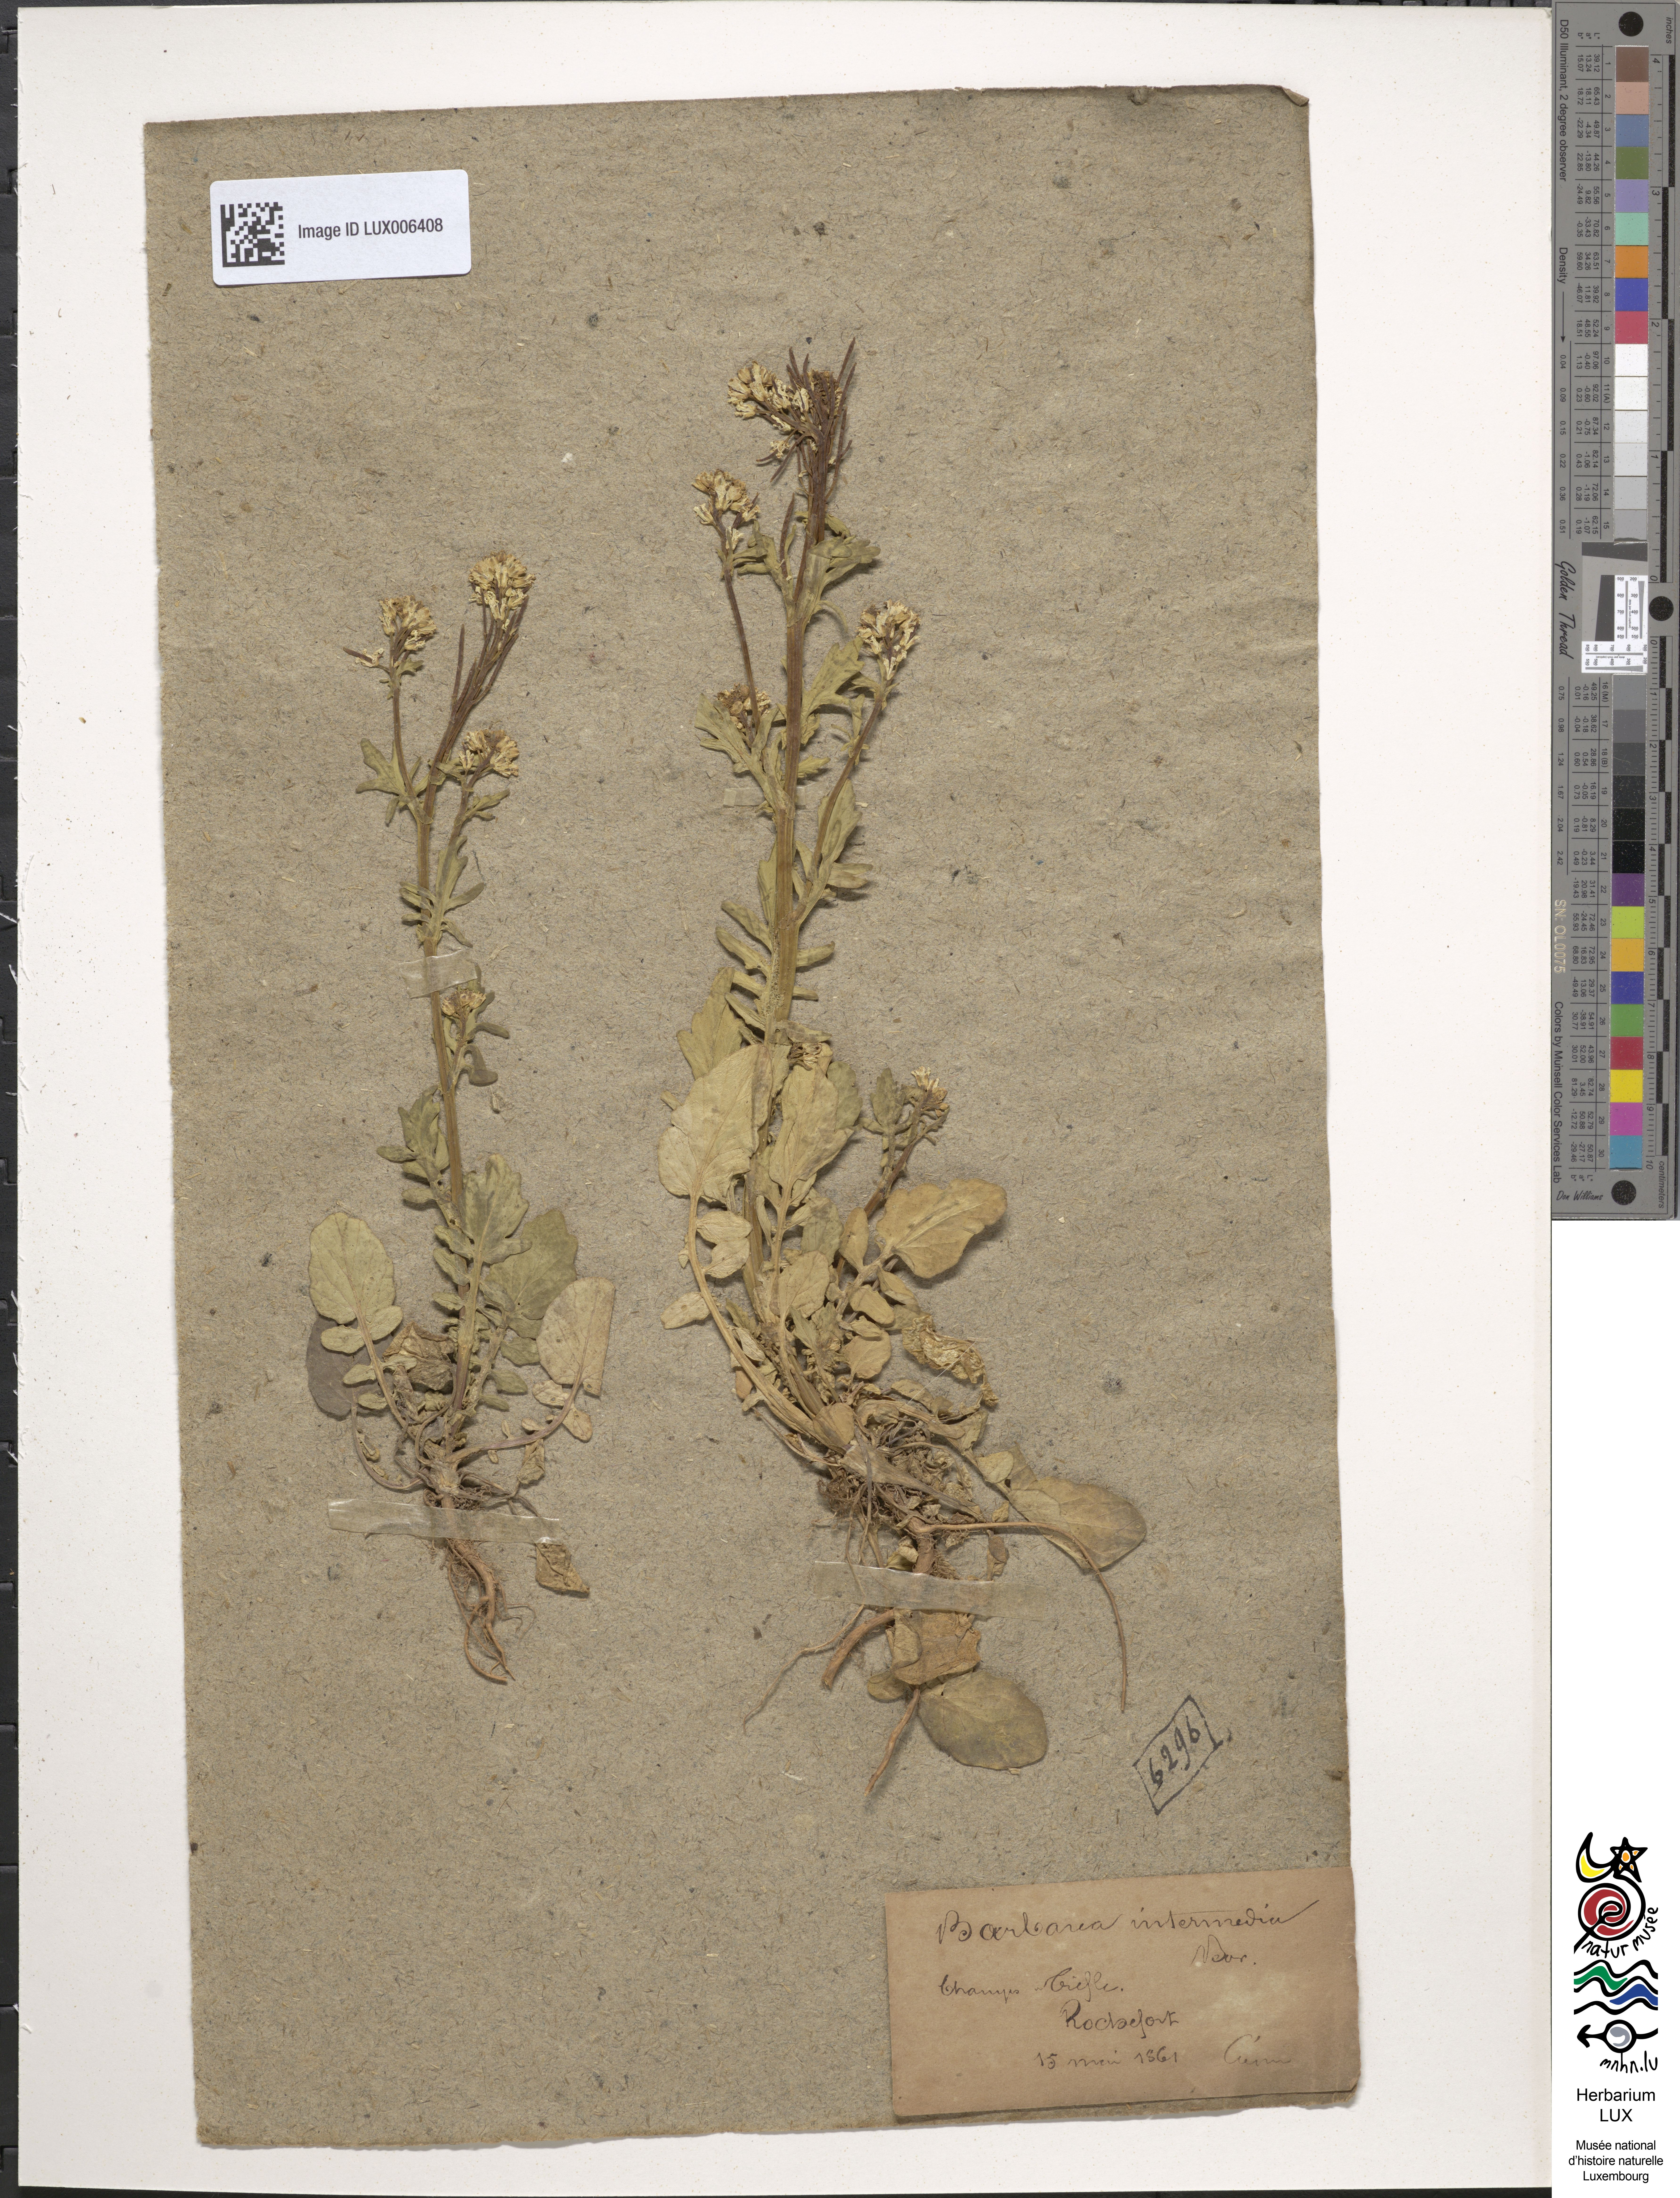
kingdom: Plantae
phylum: Tracheophyta
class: Magnoliopsida
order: Brassicales
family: Brassicaceae
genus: Barbarea
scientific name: Barbarea intermedia
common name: Medium-flowered winter-cress
